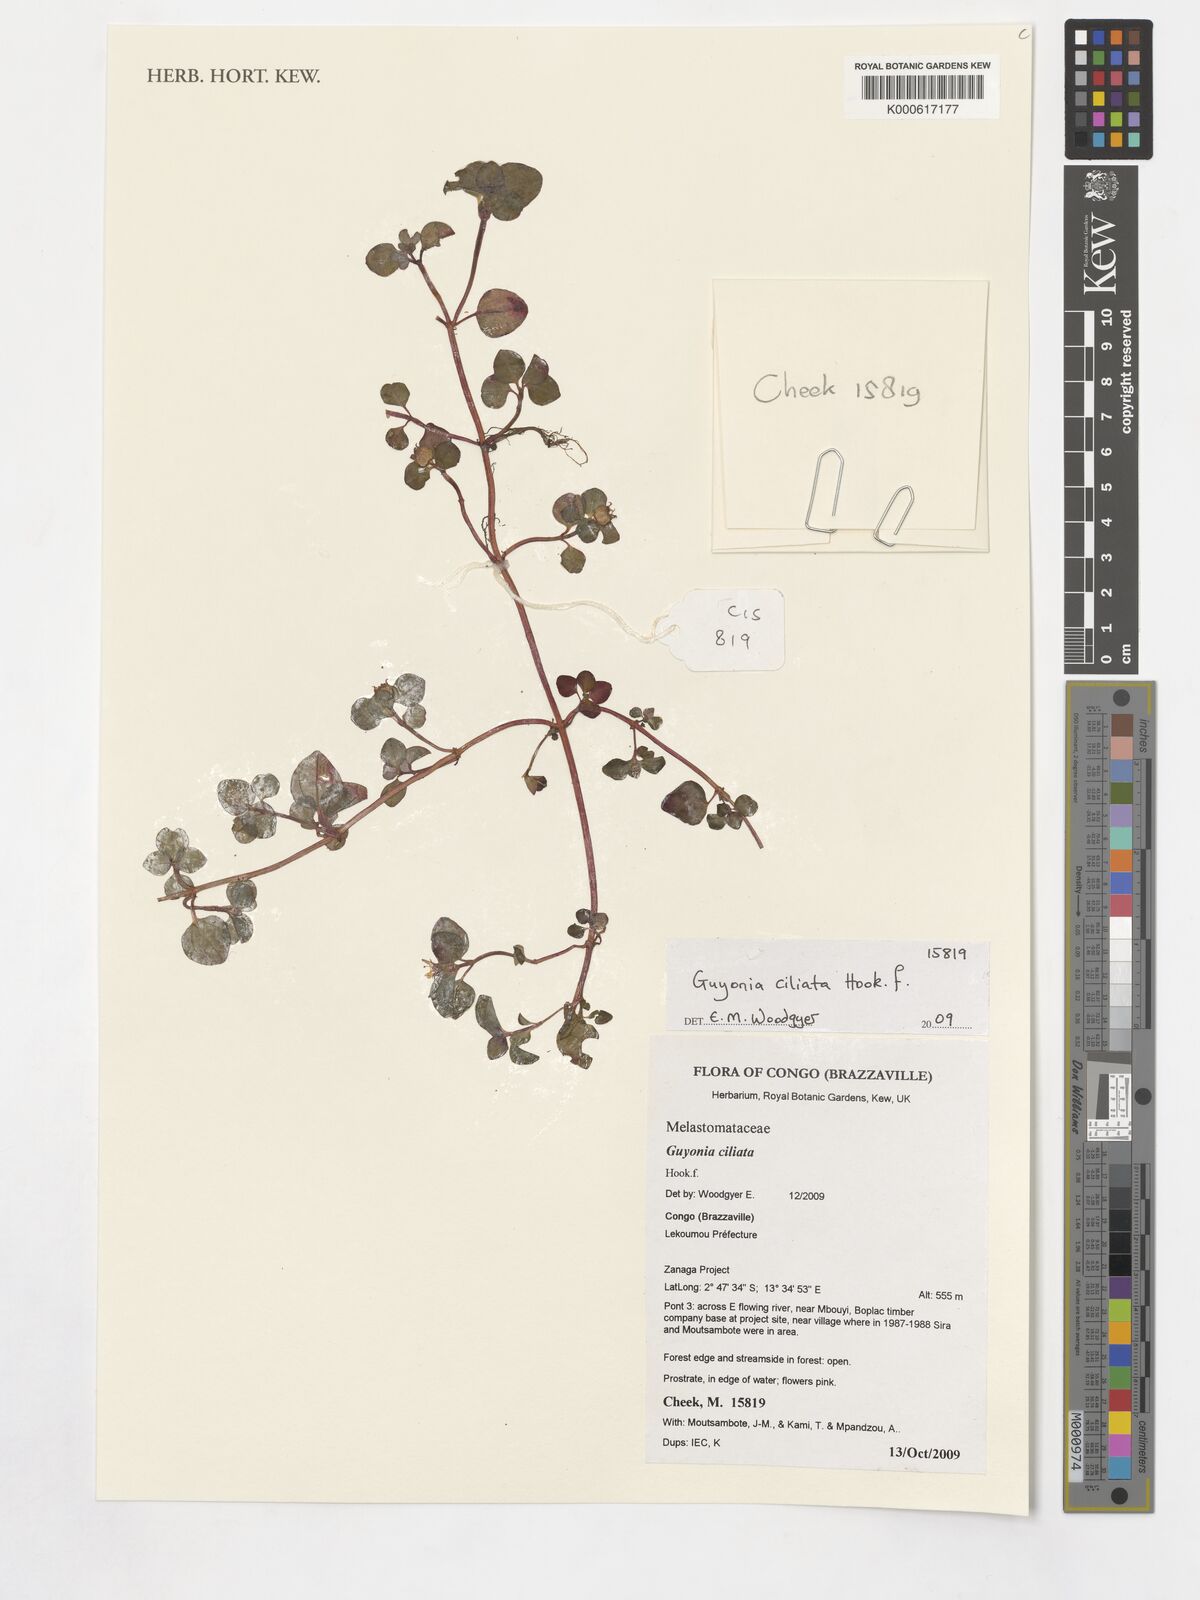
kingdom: Plantae
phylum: Tracheophyta
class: Magnoliopsida
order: Myrtales
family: Melastomataceae
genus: Guyonia
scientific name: Guyonia ciliata
